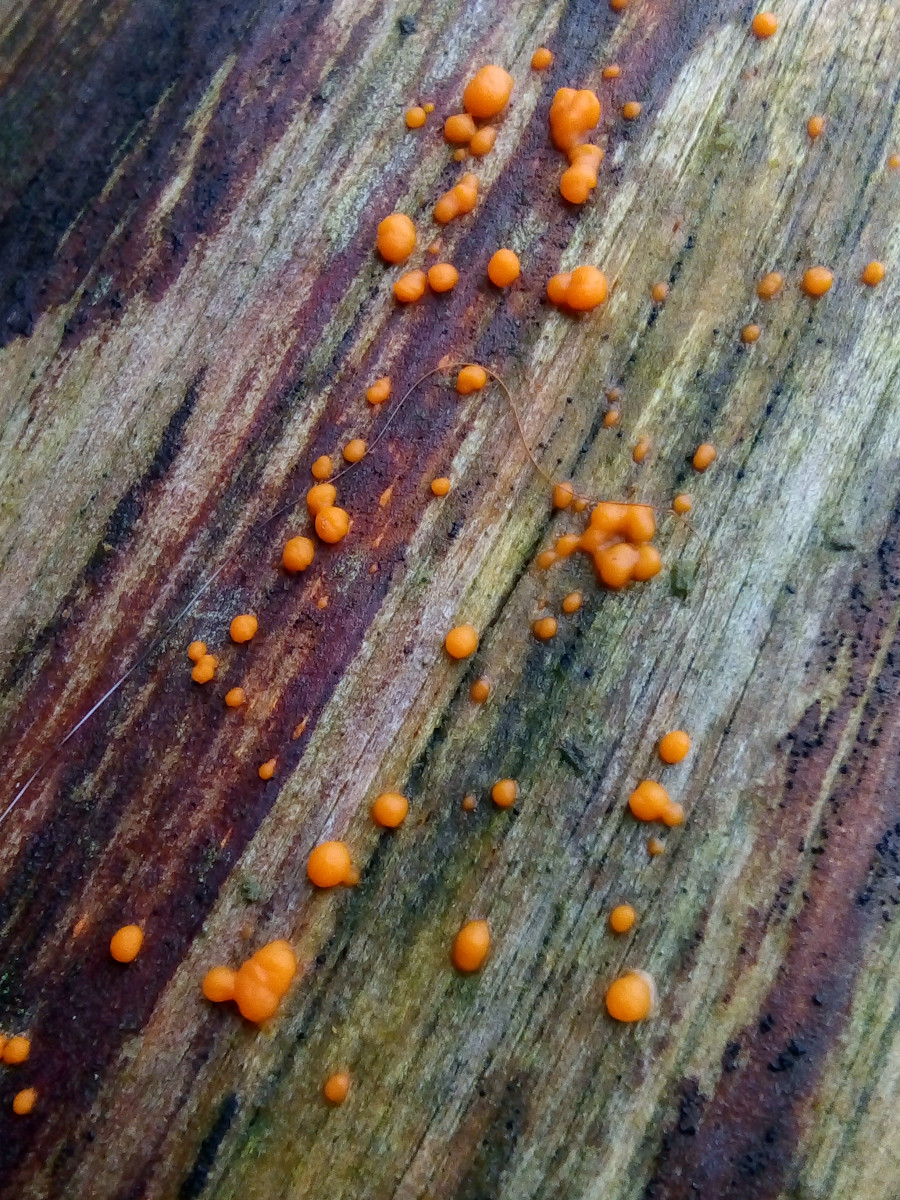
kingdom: Fungi
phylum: Basidiomycota
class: Dacrymycetes
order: Dacrymycetales
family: Dacrymycetaceae
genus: Dacrymyces
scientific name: Dacrymyces stillatus
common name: almindelig tåresvamp
